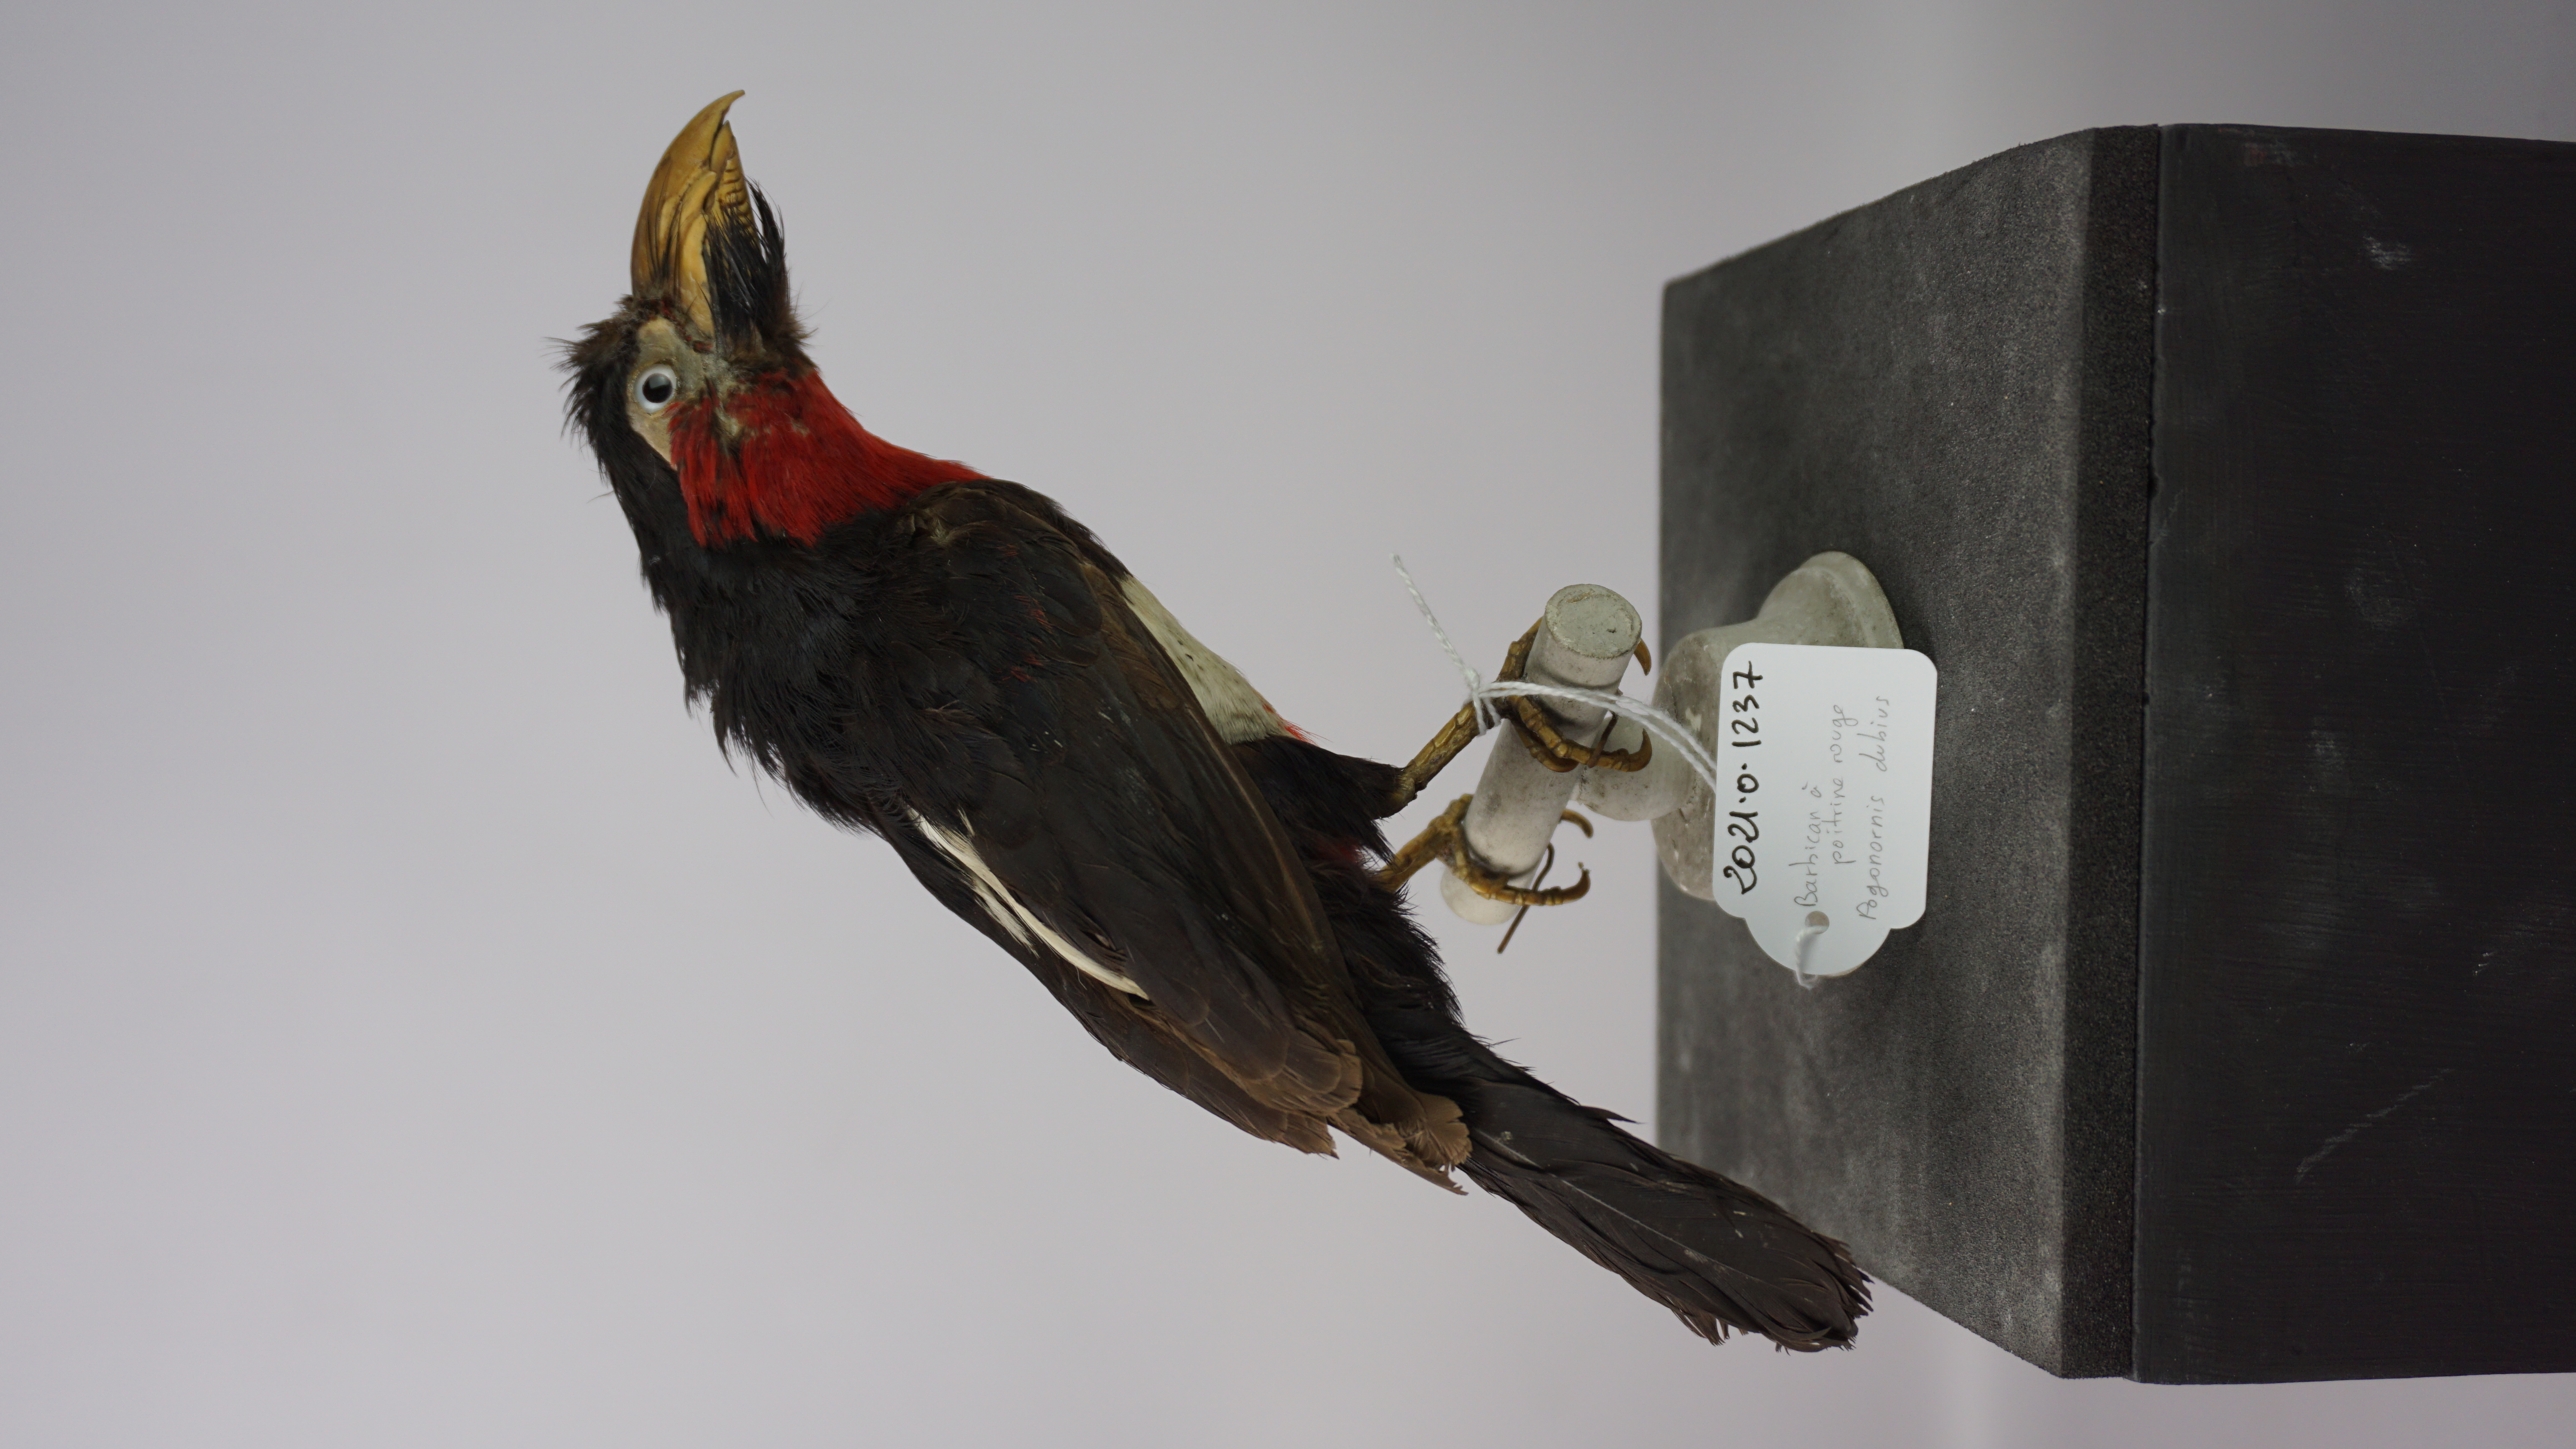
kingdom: Animalia
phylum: Chordata
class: Aves
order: Piciformes
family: Lybiidae
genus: Lybius
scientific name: Lybius vieilloti
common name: Vieillot's barbet
